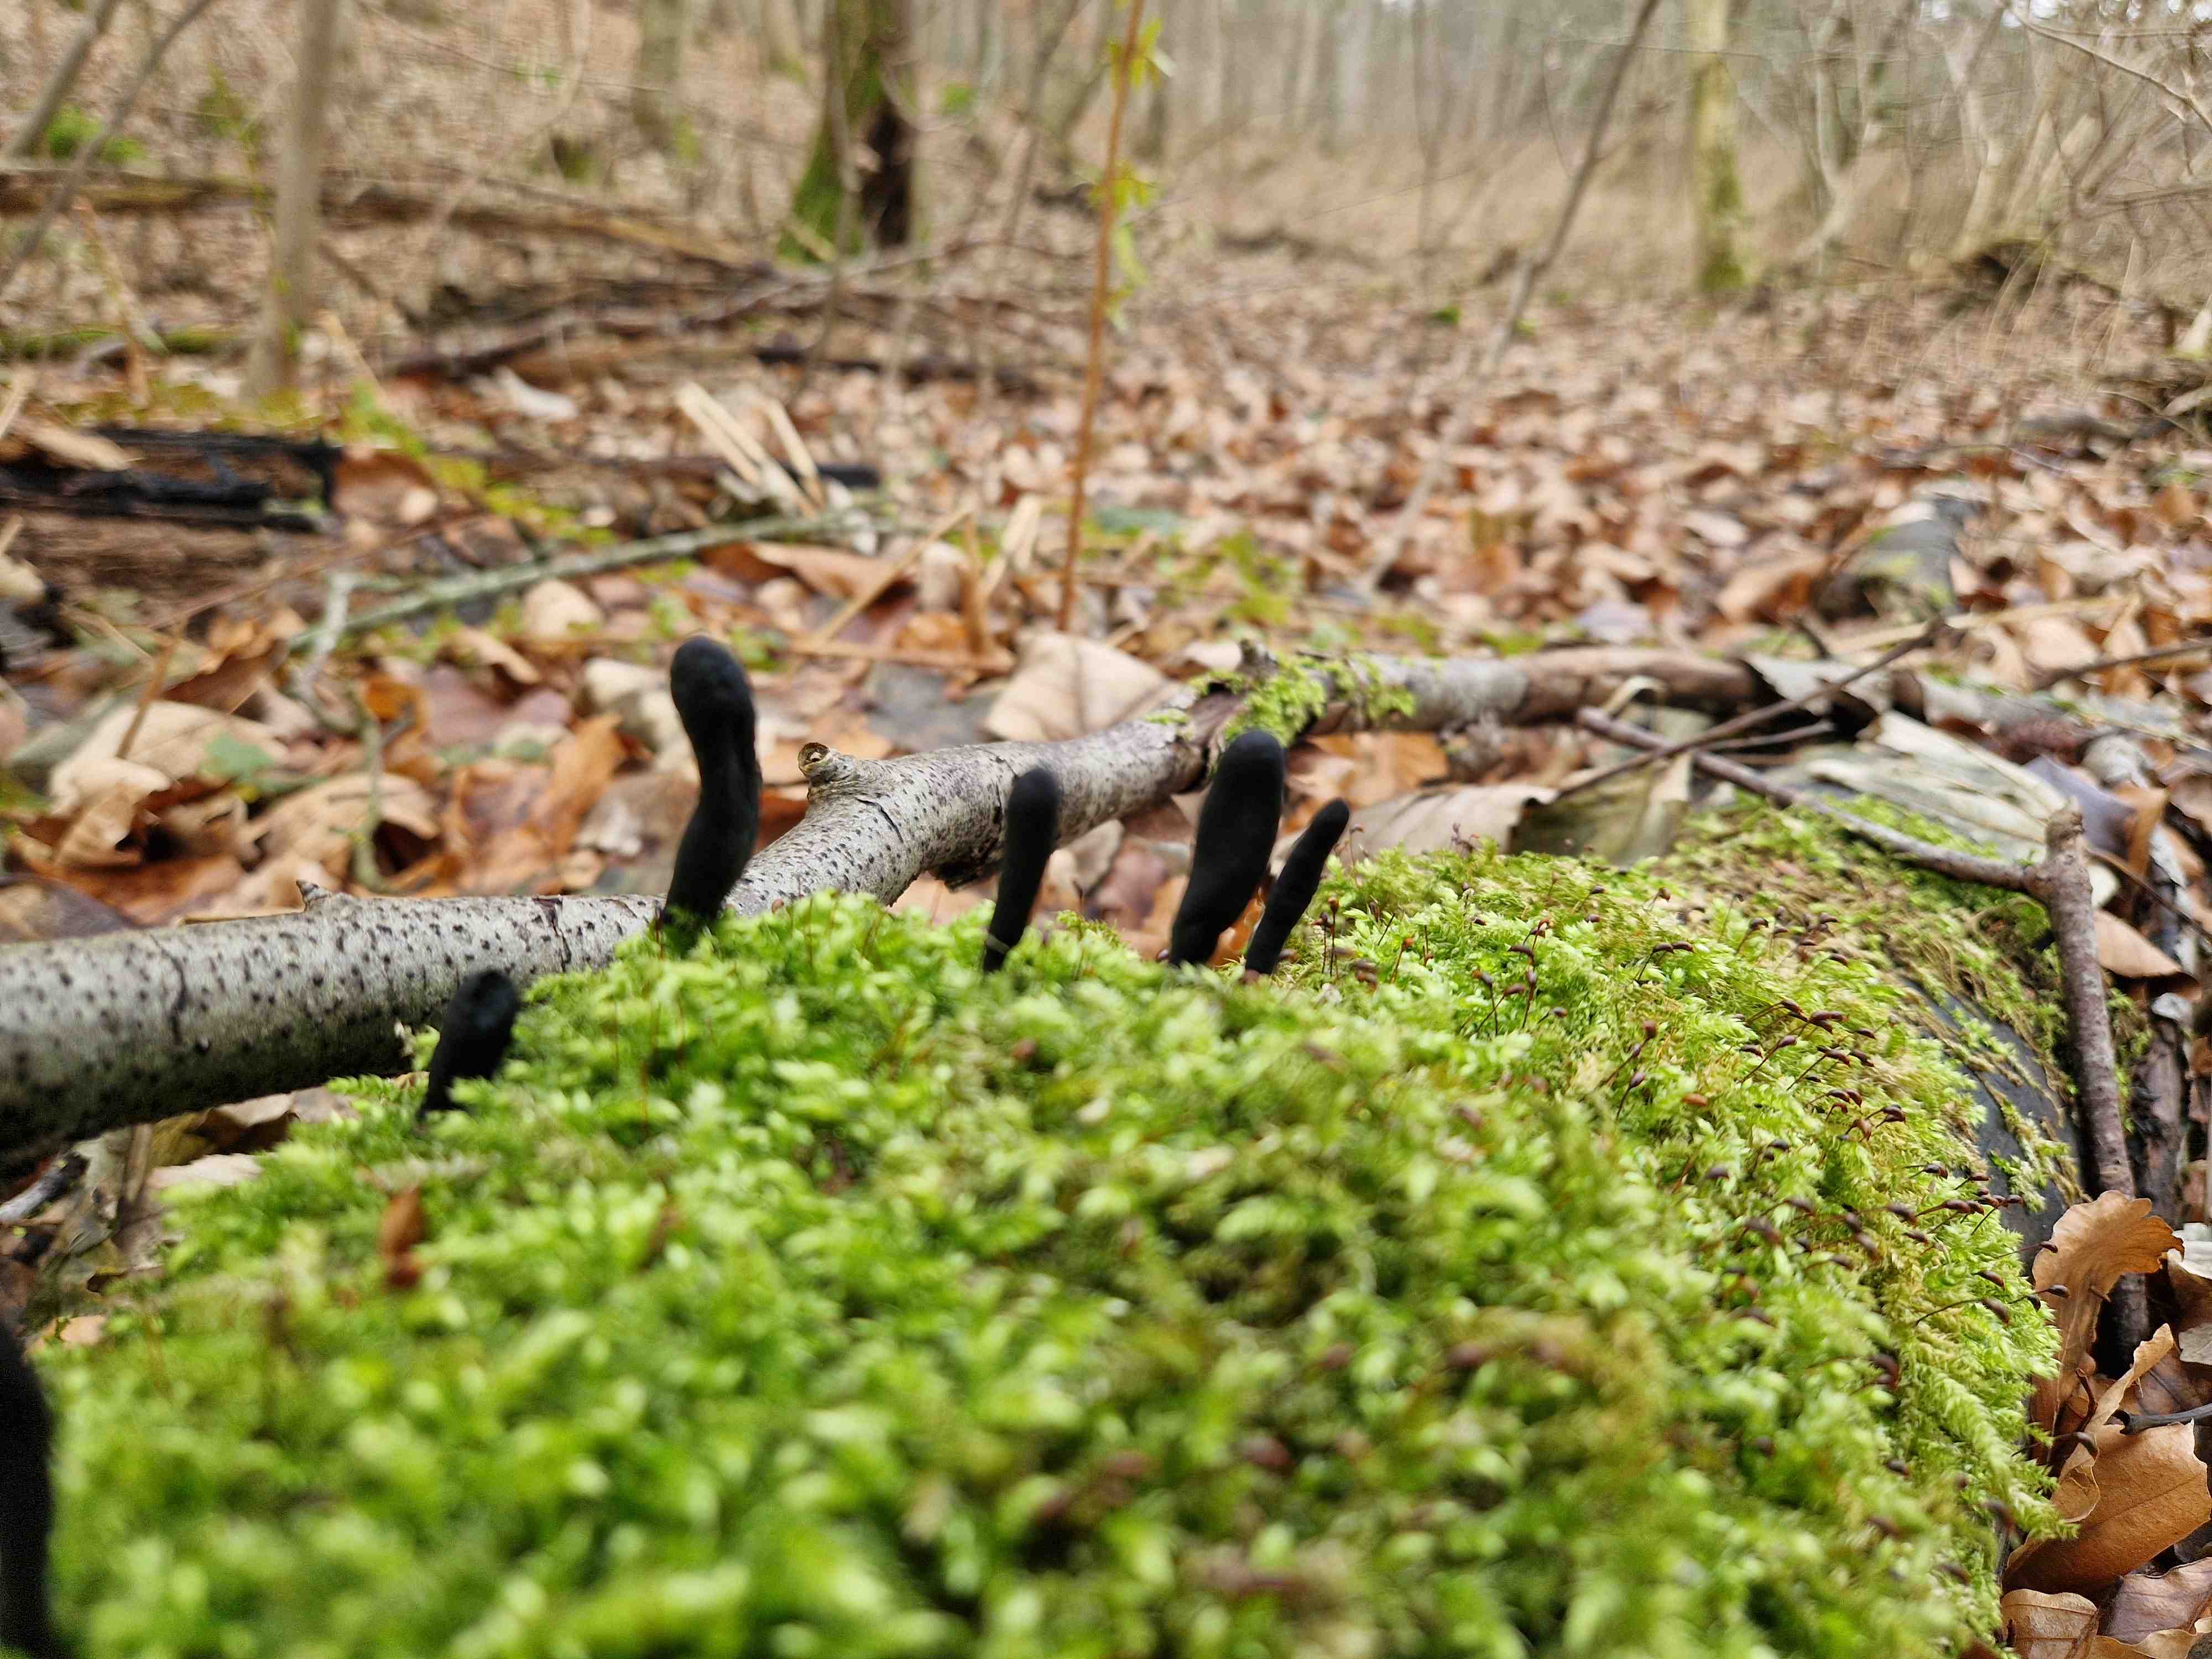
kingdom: Fungi
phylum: Ascomycota
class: Sordariomycetes
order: Xylariales
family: Xylariaceae
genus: Xylaria
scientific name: Xylaria longipes
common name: slank stødsvamp
